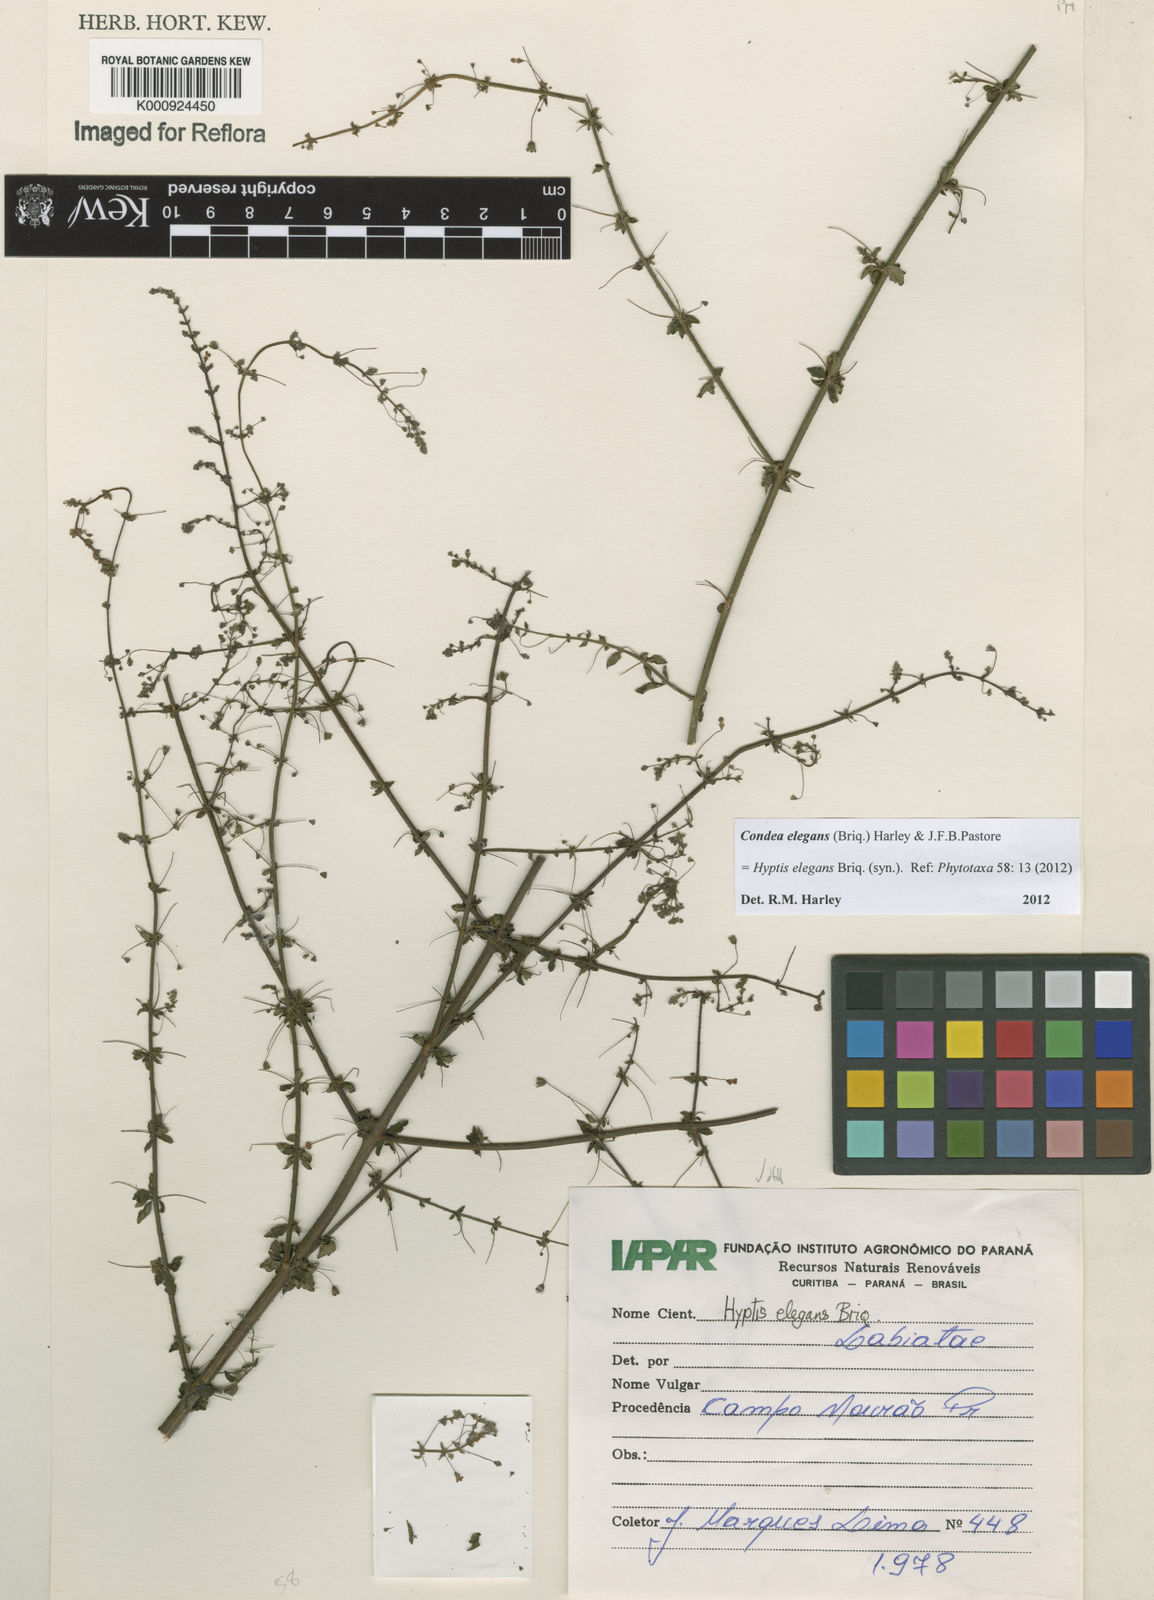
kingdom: Plantae
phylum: Tracheophyta
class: Magnoliopsida
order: Lamiales
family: Lamiaceae
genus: Condea
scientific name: Condea elegans
